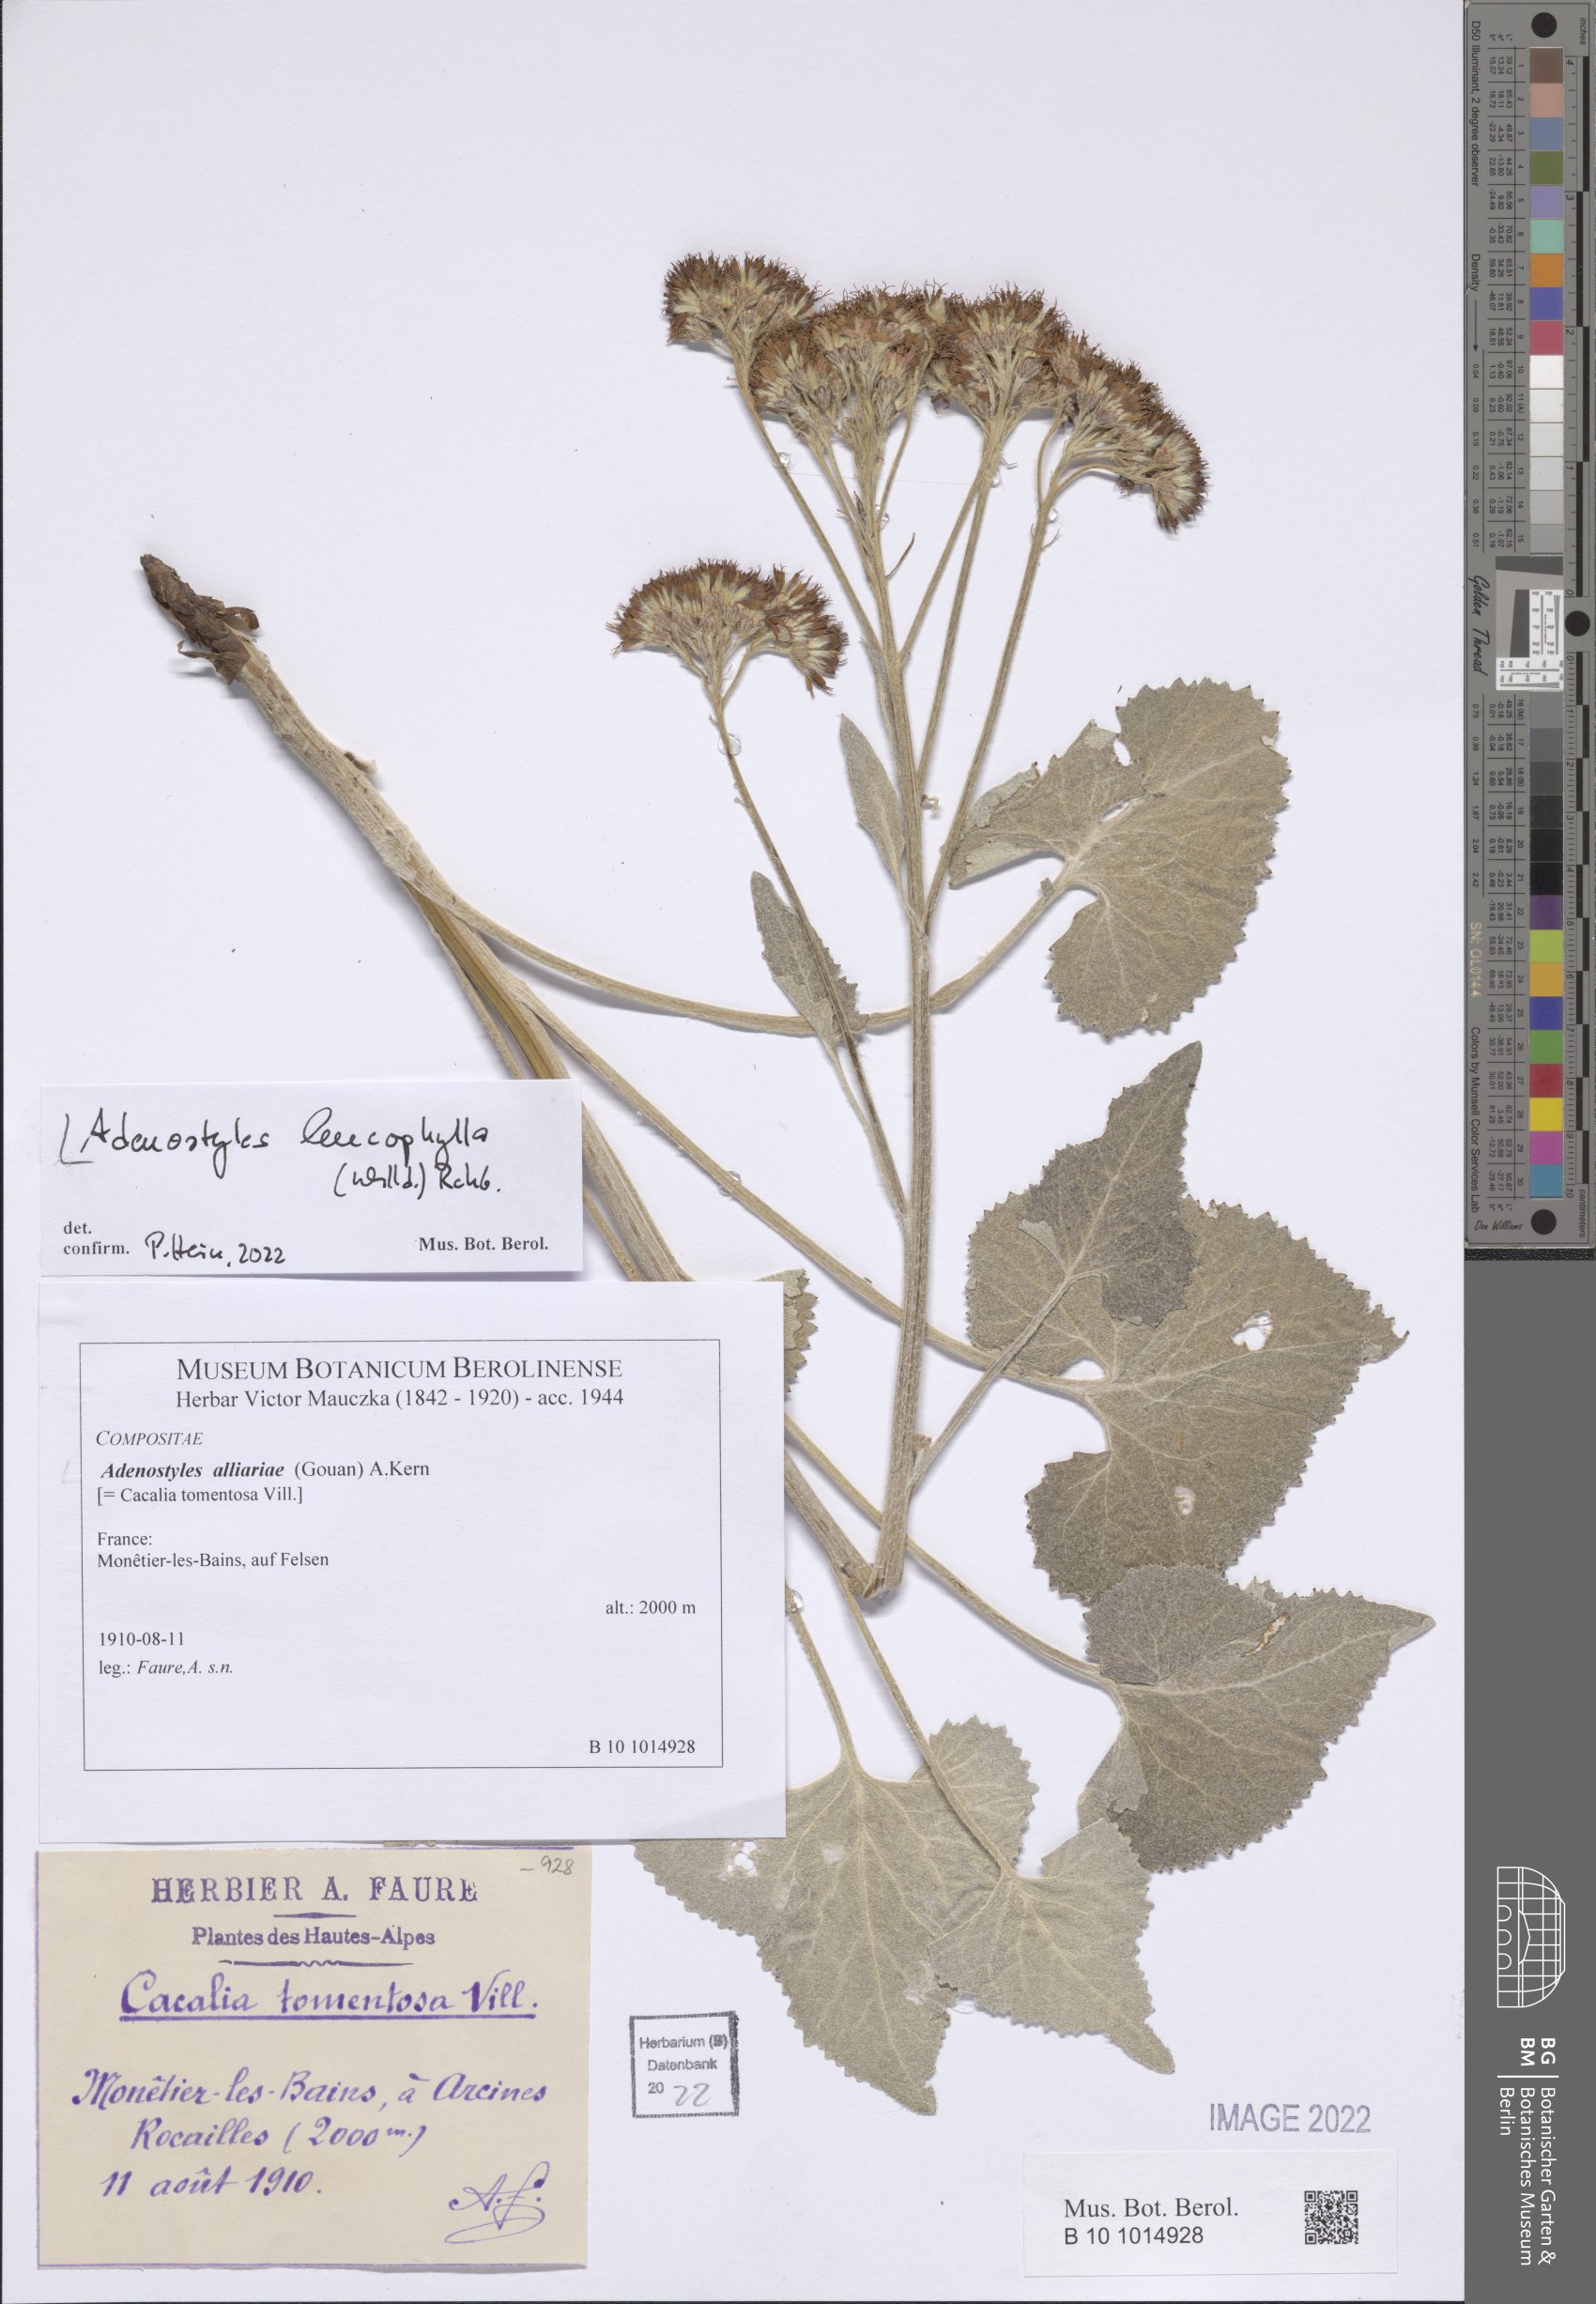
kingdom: Plantae
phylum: Tracheophyta
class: Magnoliopsida
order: Asterales
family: Asteraceae
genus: Adenostyles
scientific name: Adenostyles leucophylla
